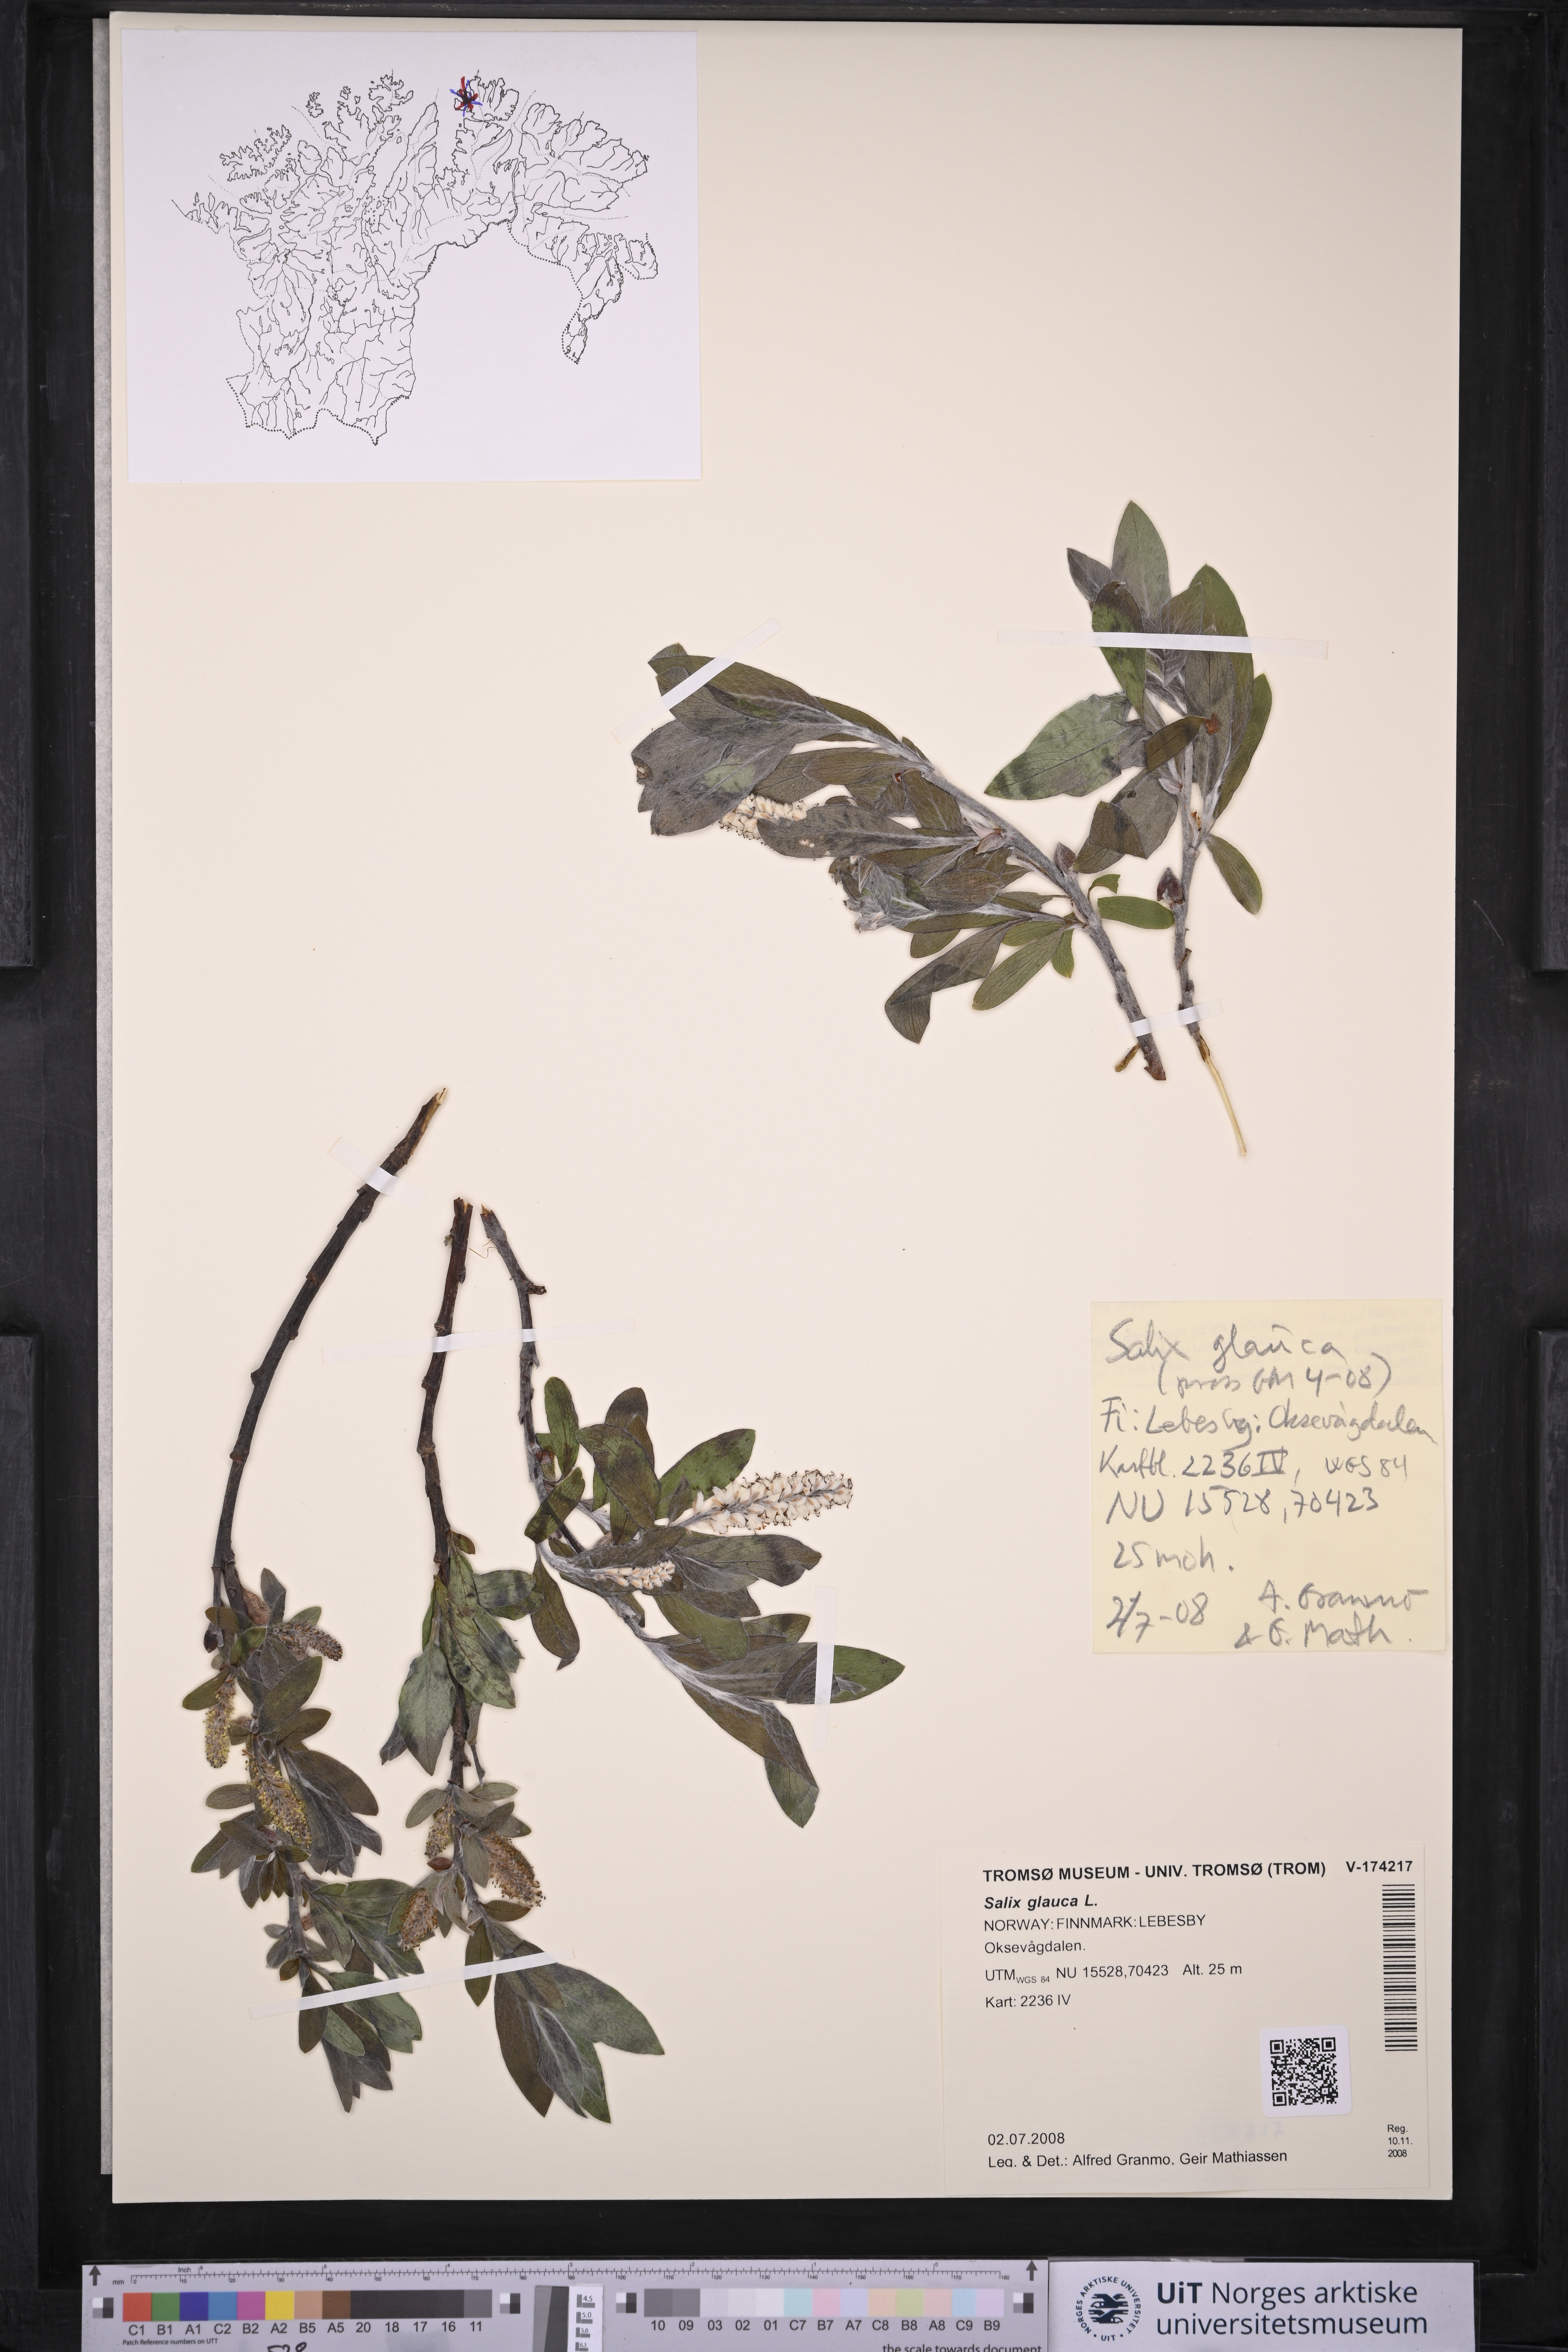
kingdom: Plantae
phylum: Tracheophyta
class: Magnoliopsida
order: Malpighiales
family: Salicaceae
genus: Salix
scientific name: Salix glauca
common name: Glaucous willow
